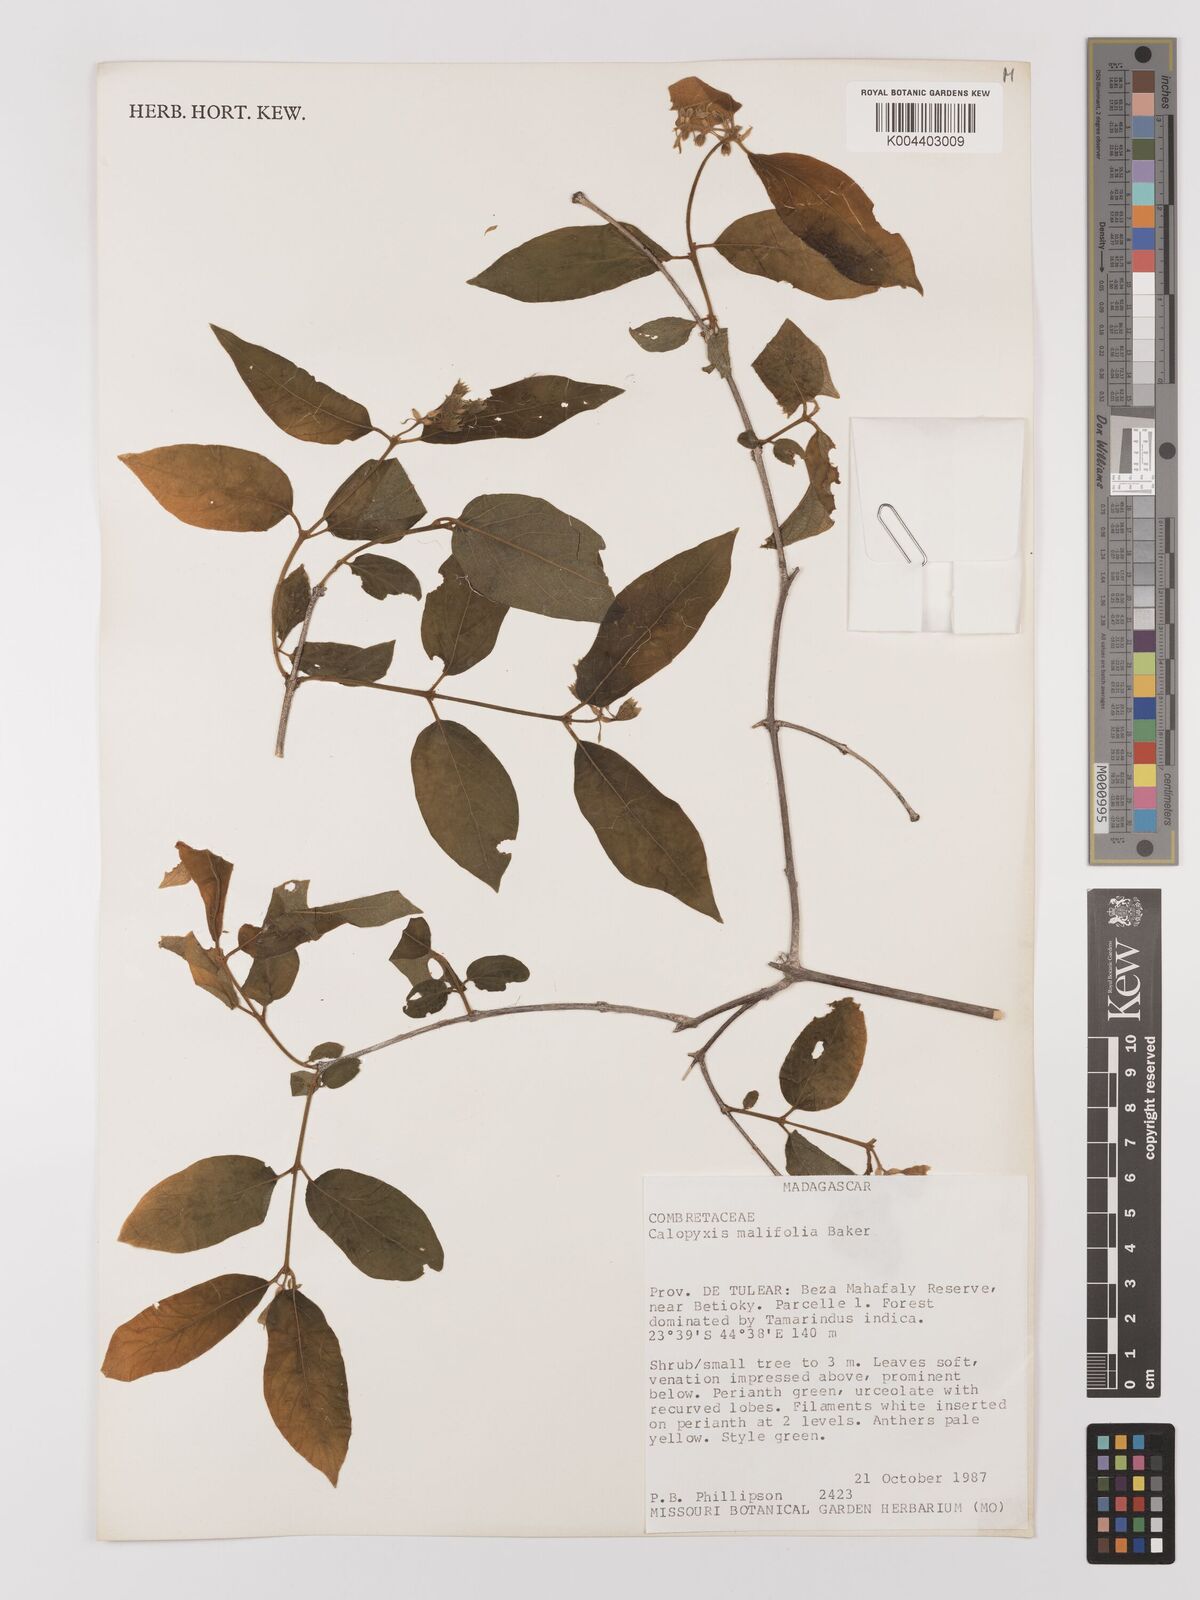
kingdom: Plantae
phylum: Tracheophyta
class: Magnoliopsida
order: Myrtales
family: Combretaceae
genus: Combretum
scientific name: Combretum malifolium
